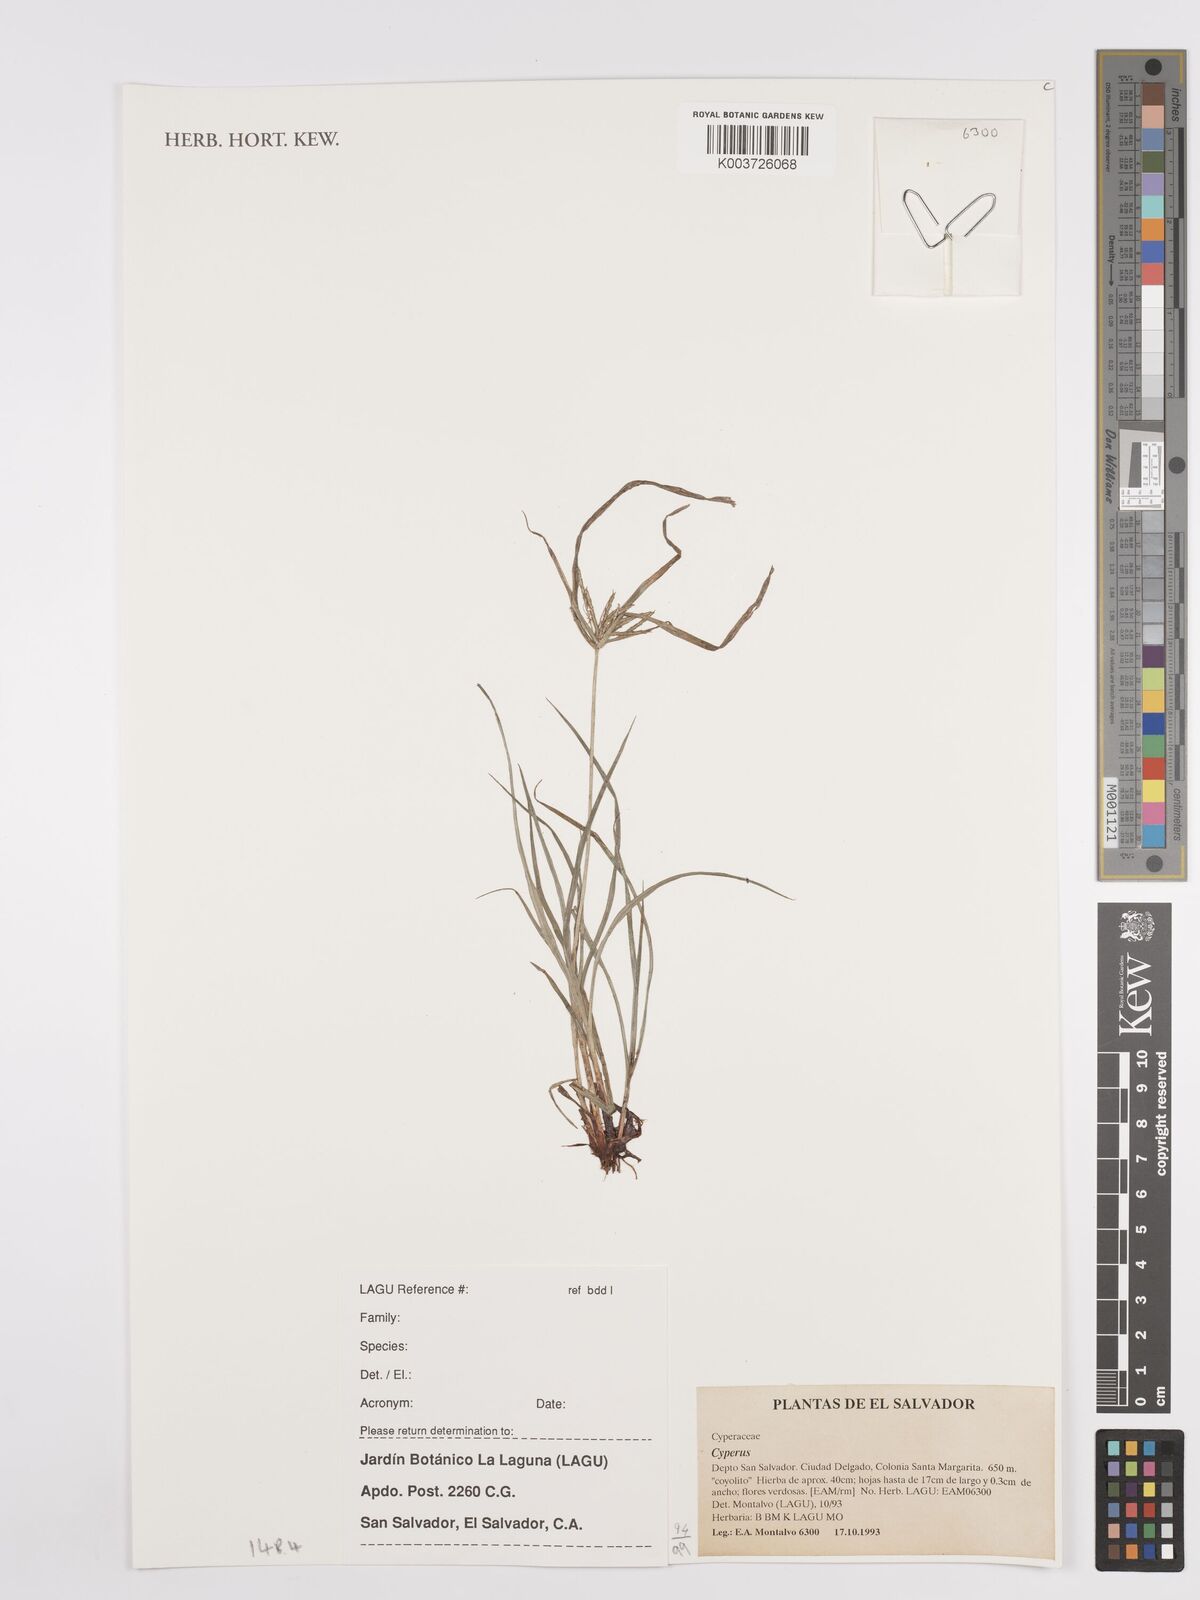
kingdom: Plantae
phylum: Tracheophyta
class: Liliopsida
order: Poales
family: Cyperaceae
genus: Cyperus
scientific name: Cyperus
